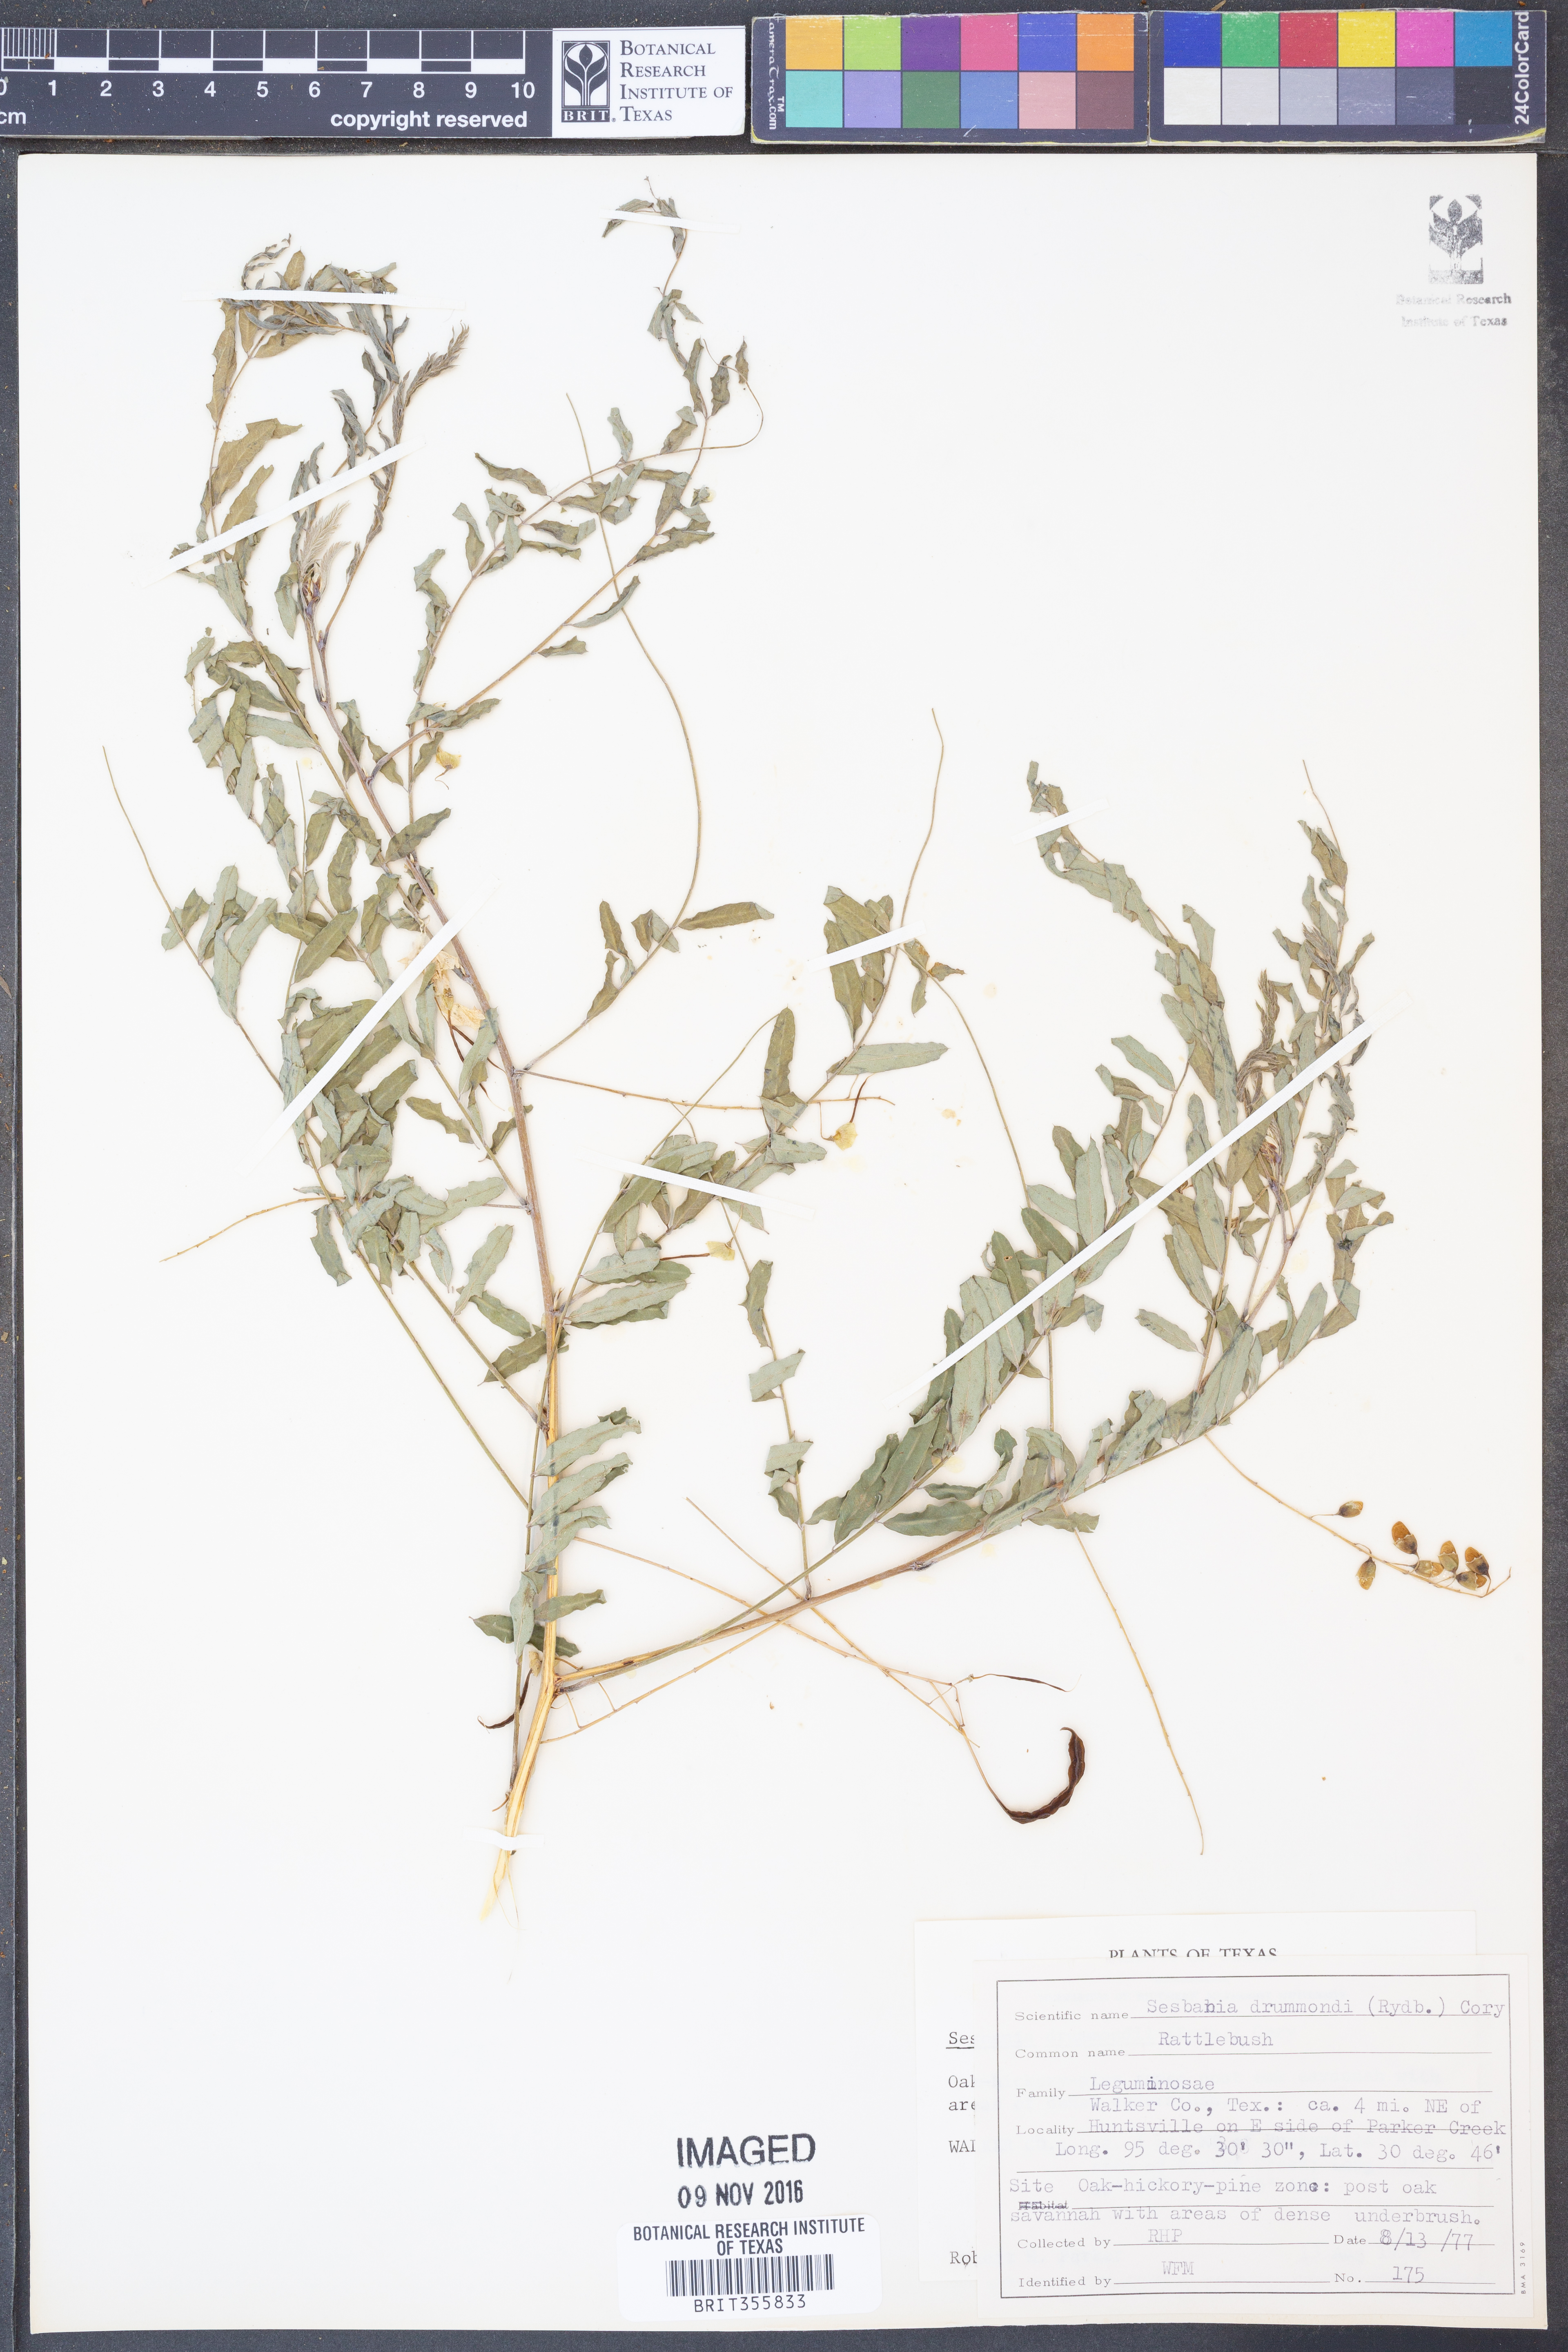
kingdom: Plantae
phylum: Tracheophyta
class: Magnoliopsida
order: Fabales
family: Fabaceae
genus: Sesbania
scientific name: Sesbania drummondii
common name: Poison-bean
